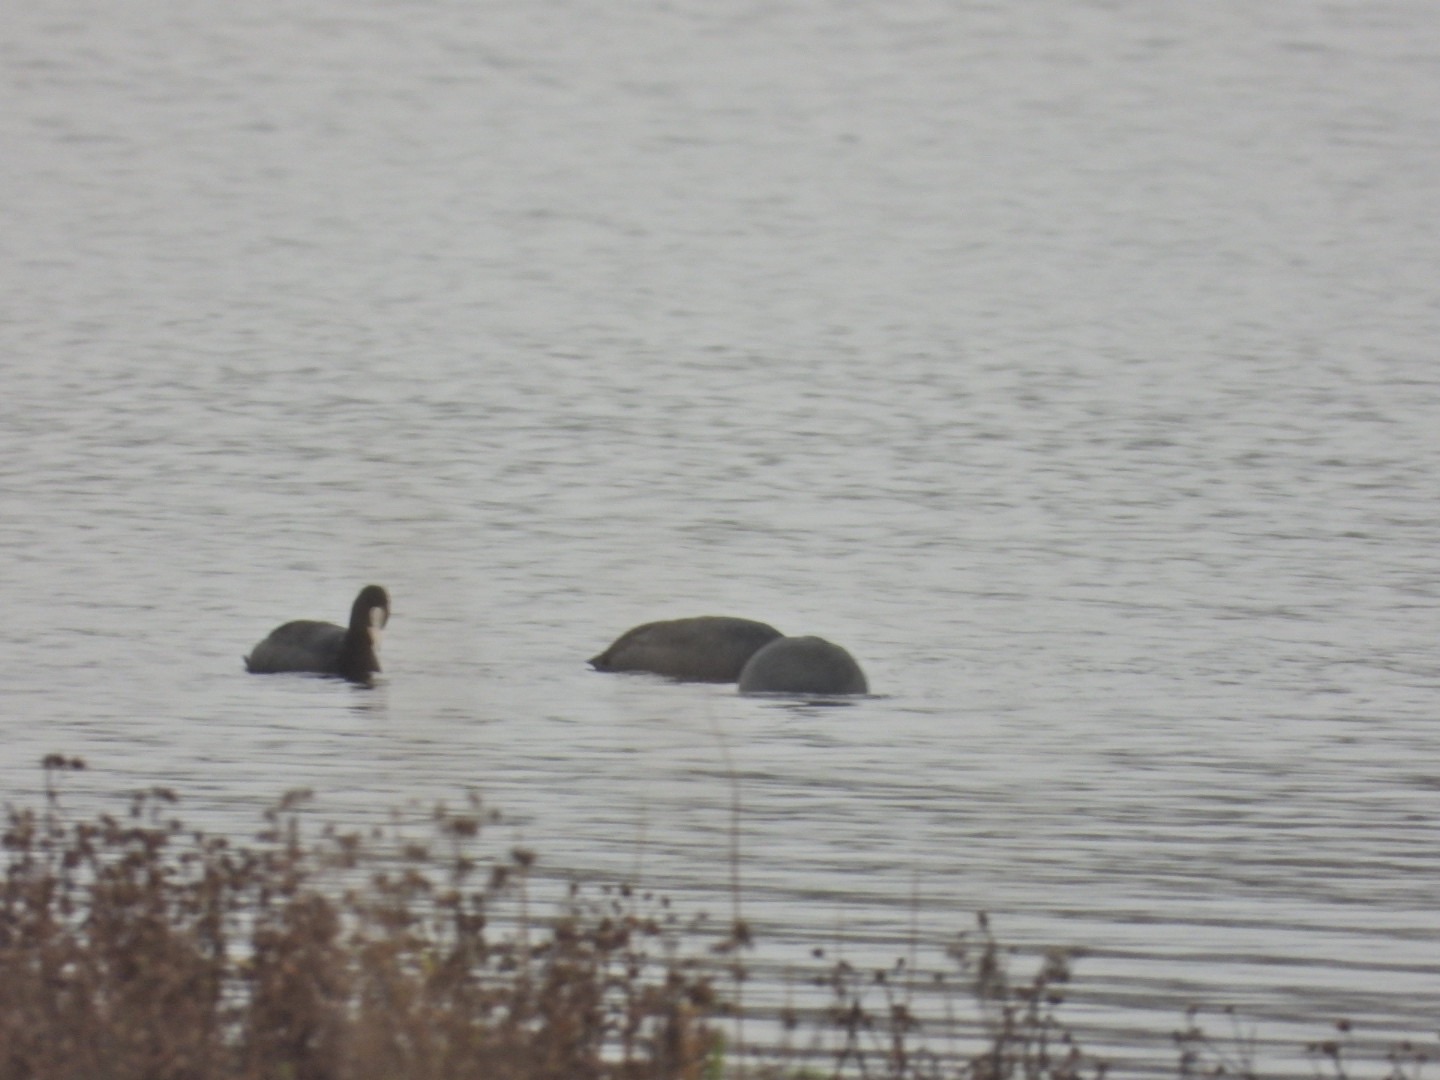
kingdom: Animalia
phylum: Chordata
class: Aves
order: Gruiformes
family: Rallidae
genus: Fulica
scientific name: Fulica atra
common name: Blishøne
